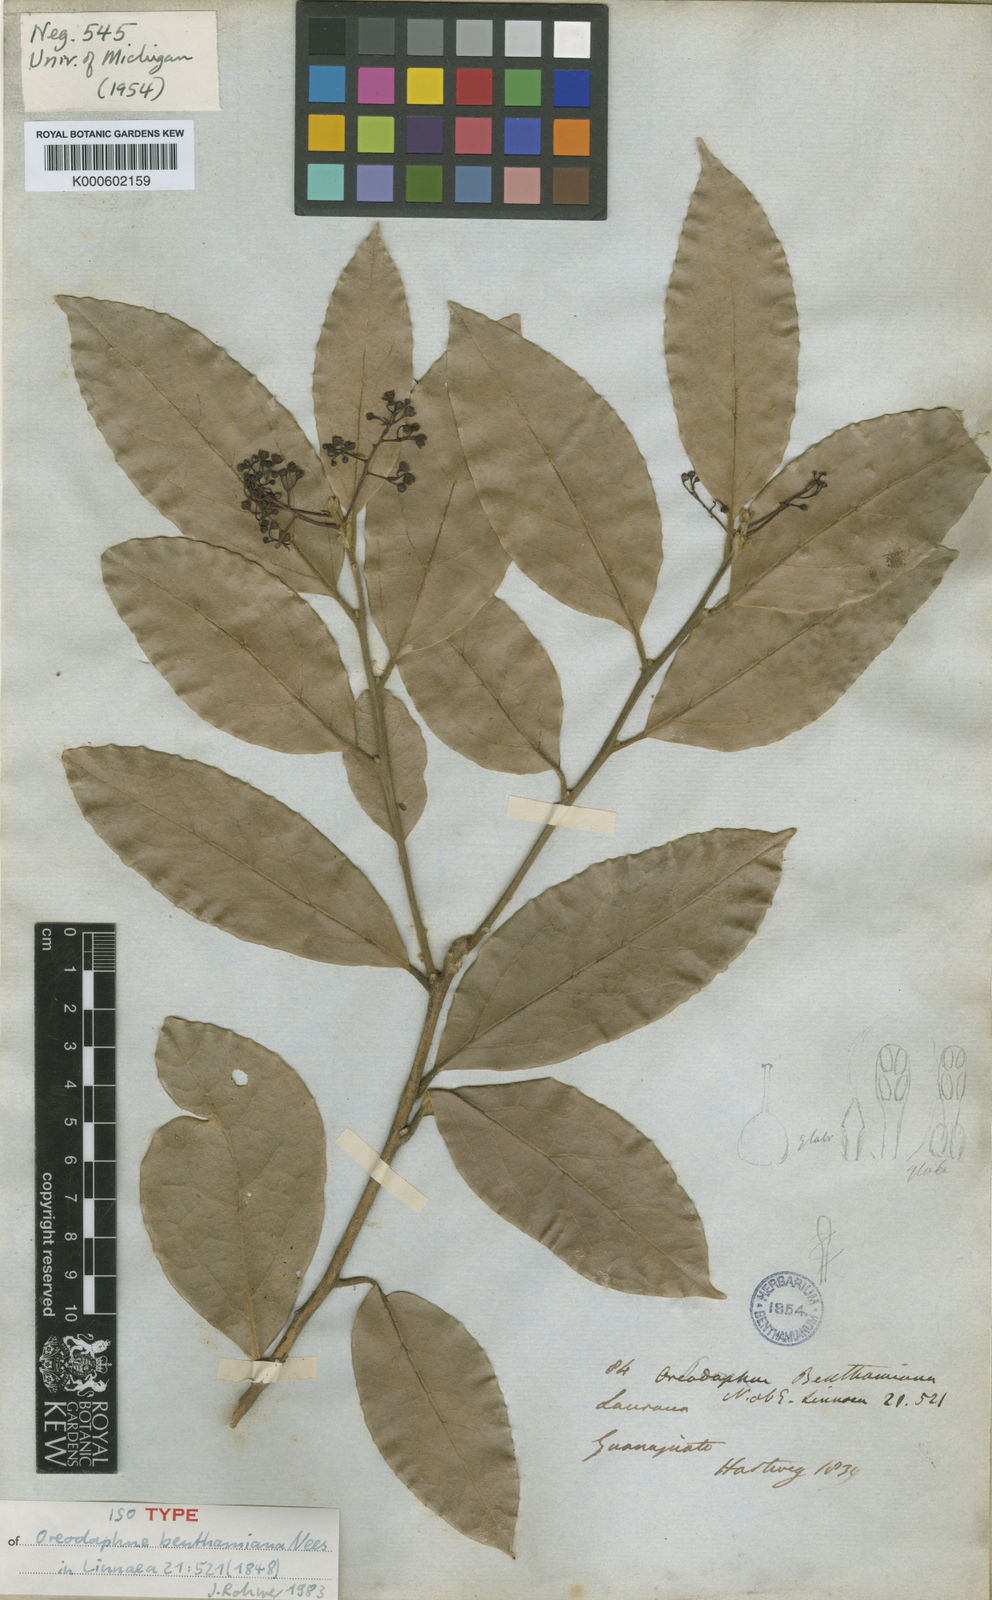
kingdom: Plantae
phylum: Tracheophyta
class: Magnoliopsida
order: Laurales
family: Lauraceae
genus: Aiouea
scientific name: Aiouea pachypoda
